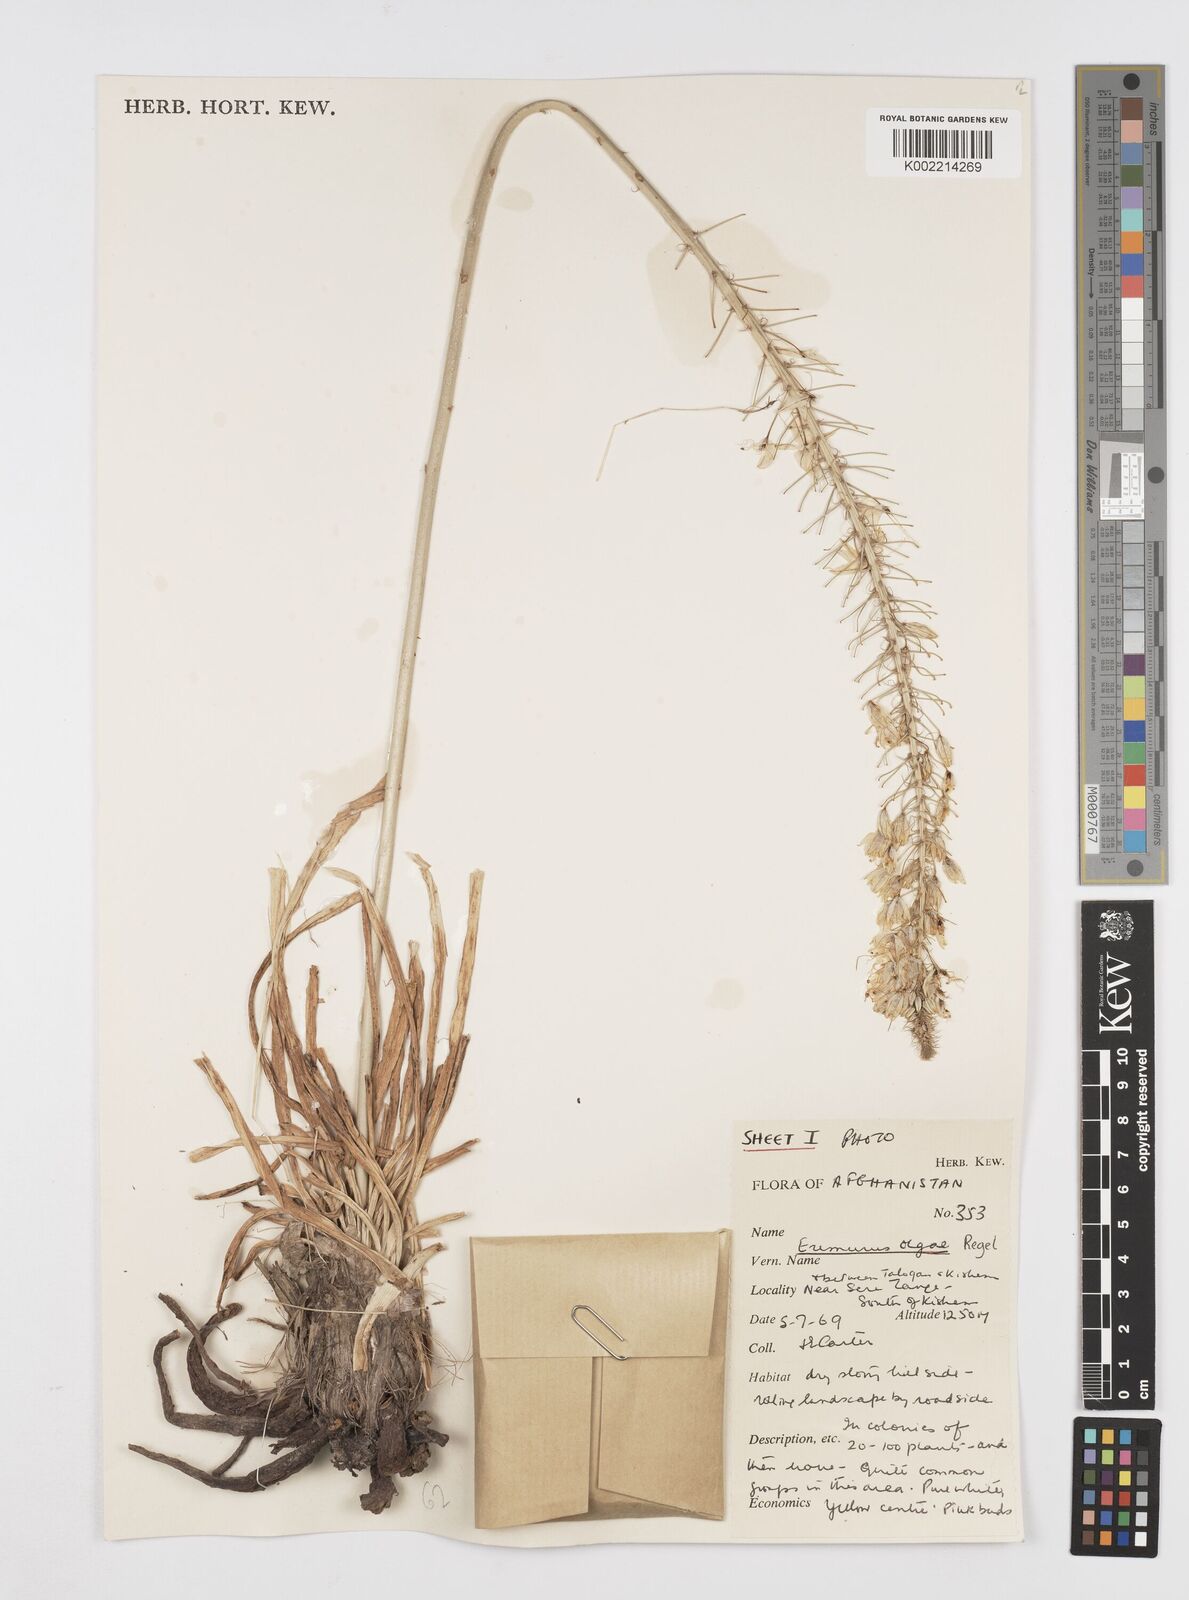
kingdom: Plantae
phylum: Tracheophyta
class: Liliopsida
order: Asparagales
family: Asphodelaceae
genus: Eremurus
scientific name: Eremurus olgae
